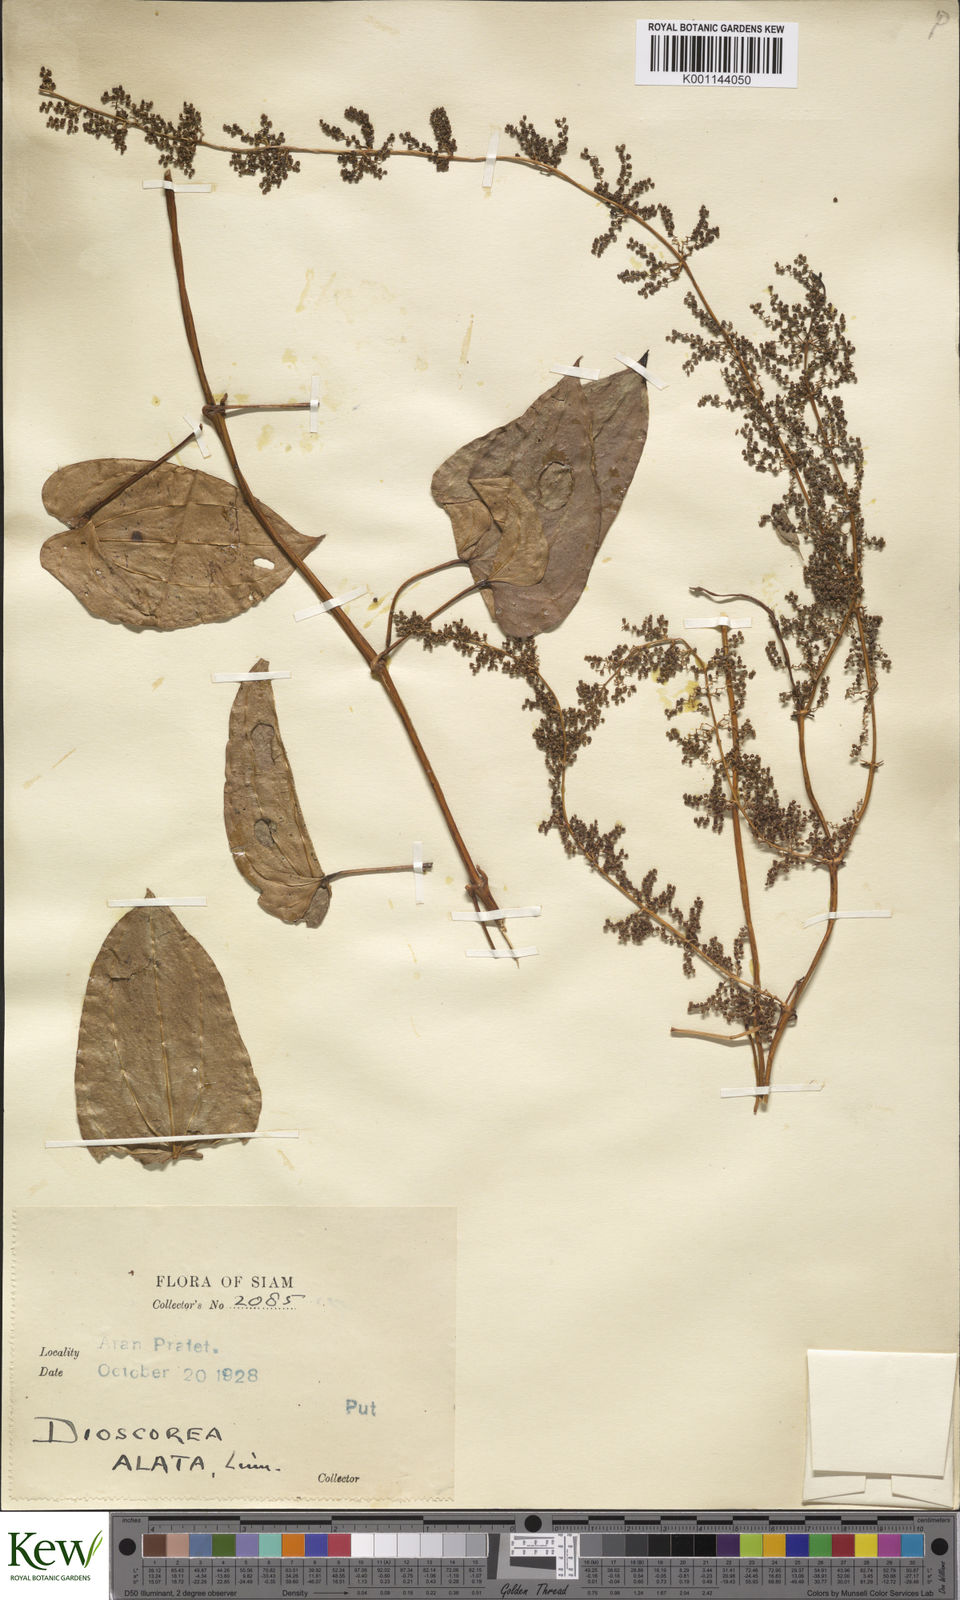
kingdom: Plantae
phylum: Tracheophyta
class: Liliopsida
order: Dioscoreales
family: Dioscoreaceae
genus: Dioscorea
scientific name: Dioscorea alata
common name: Water yam
